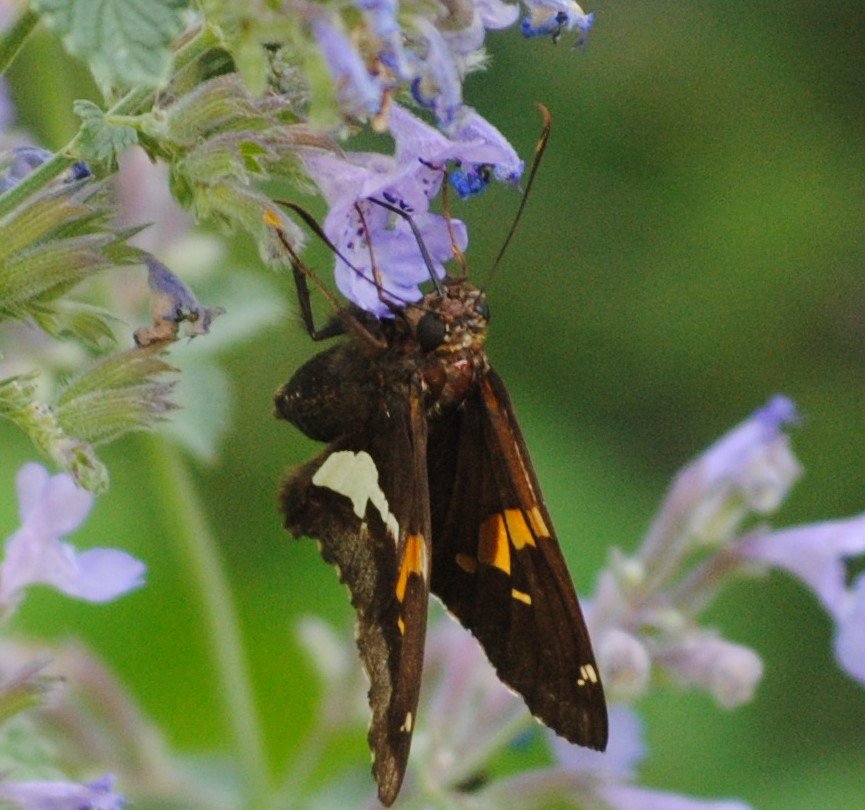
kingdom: Animalia
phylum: Arthropoda
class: Insecta
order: Lepidoptera
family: Hesperiidae
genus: Epargyreus
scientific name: Epargyreus clarus
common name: Silver-spotted Skipper
